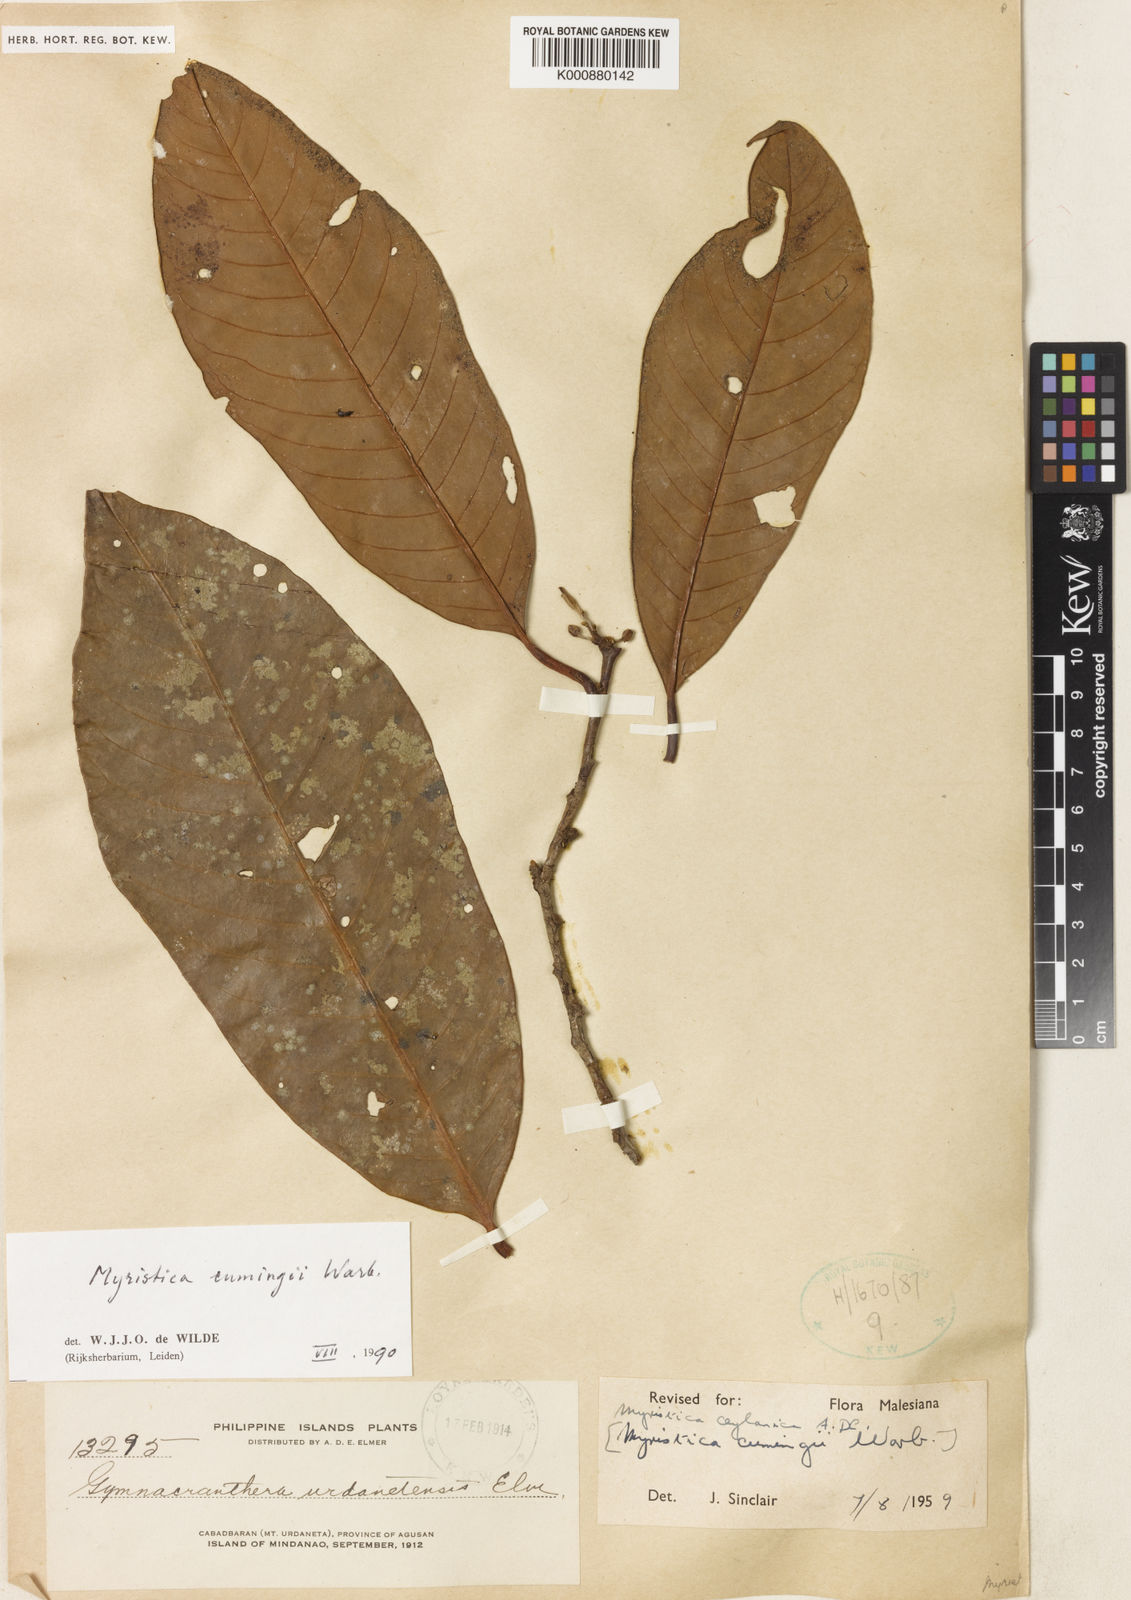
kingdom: Plantae
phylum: Tracheophyta
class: Magnoliopsida
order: Magnoliales
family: Myristicaceae
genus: Myristica
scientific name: Myristica cumingii
